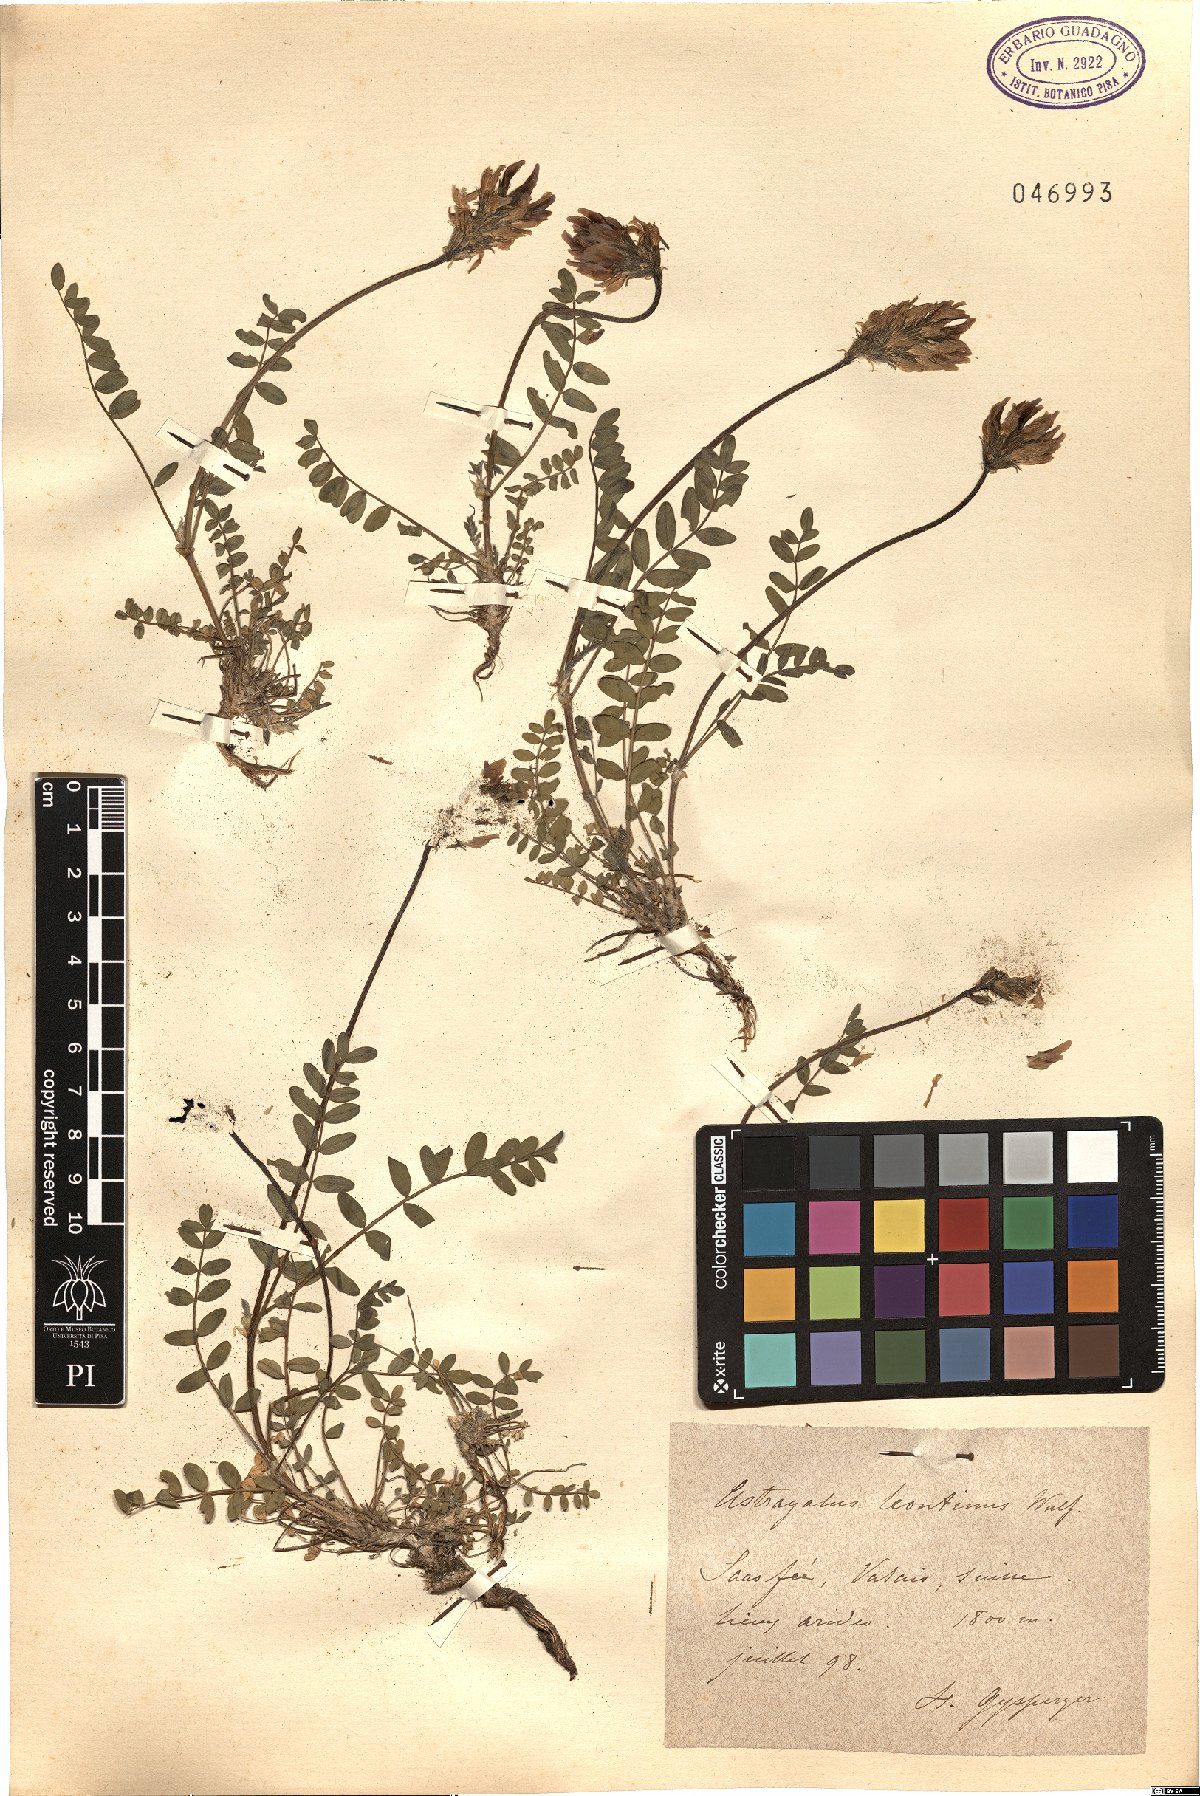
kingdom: Plantae
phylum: Tracheophyta
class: Magnoliopsida
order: Fabales
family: Fabaceae
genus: Astragalus
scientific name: Astragalus leontinus
